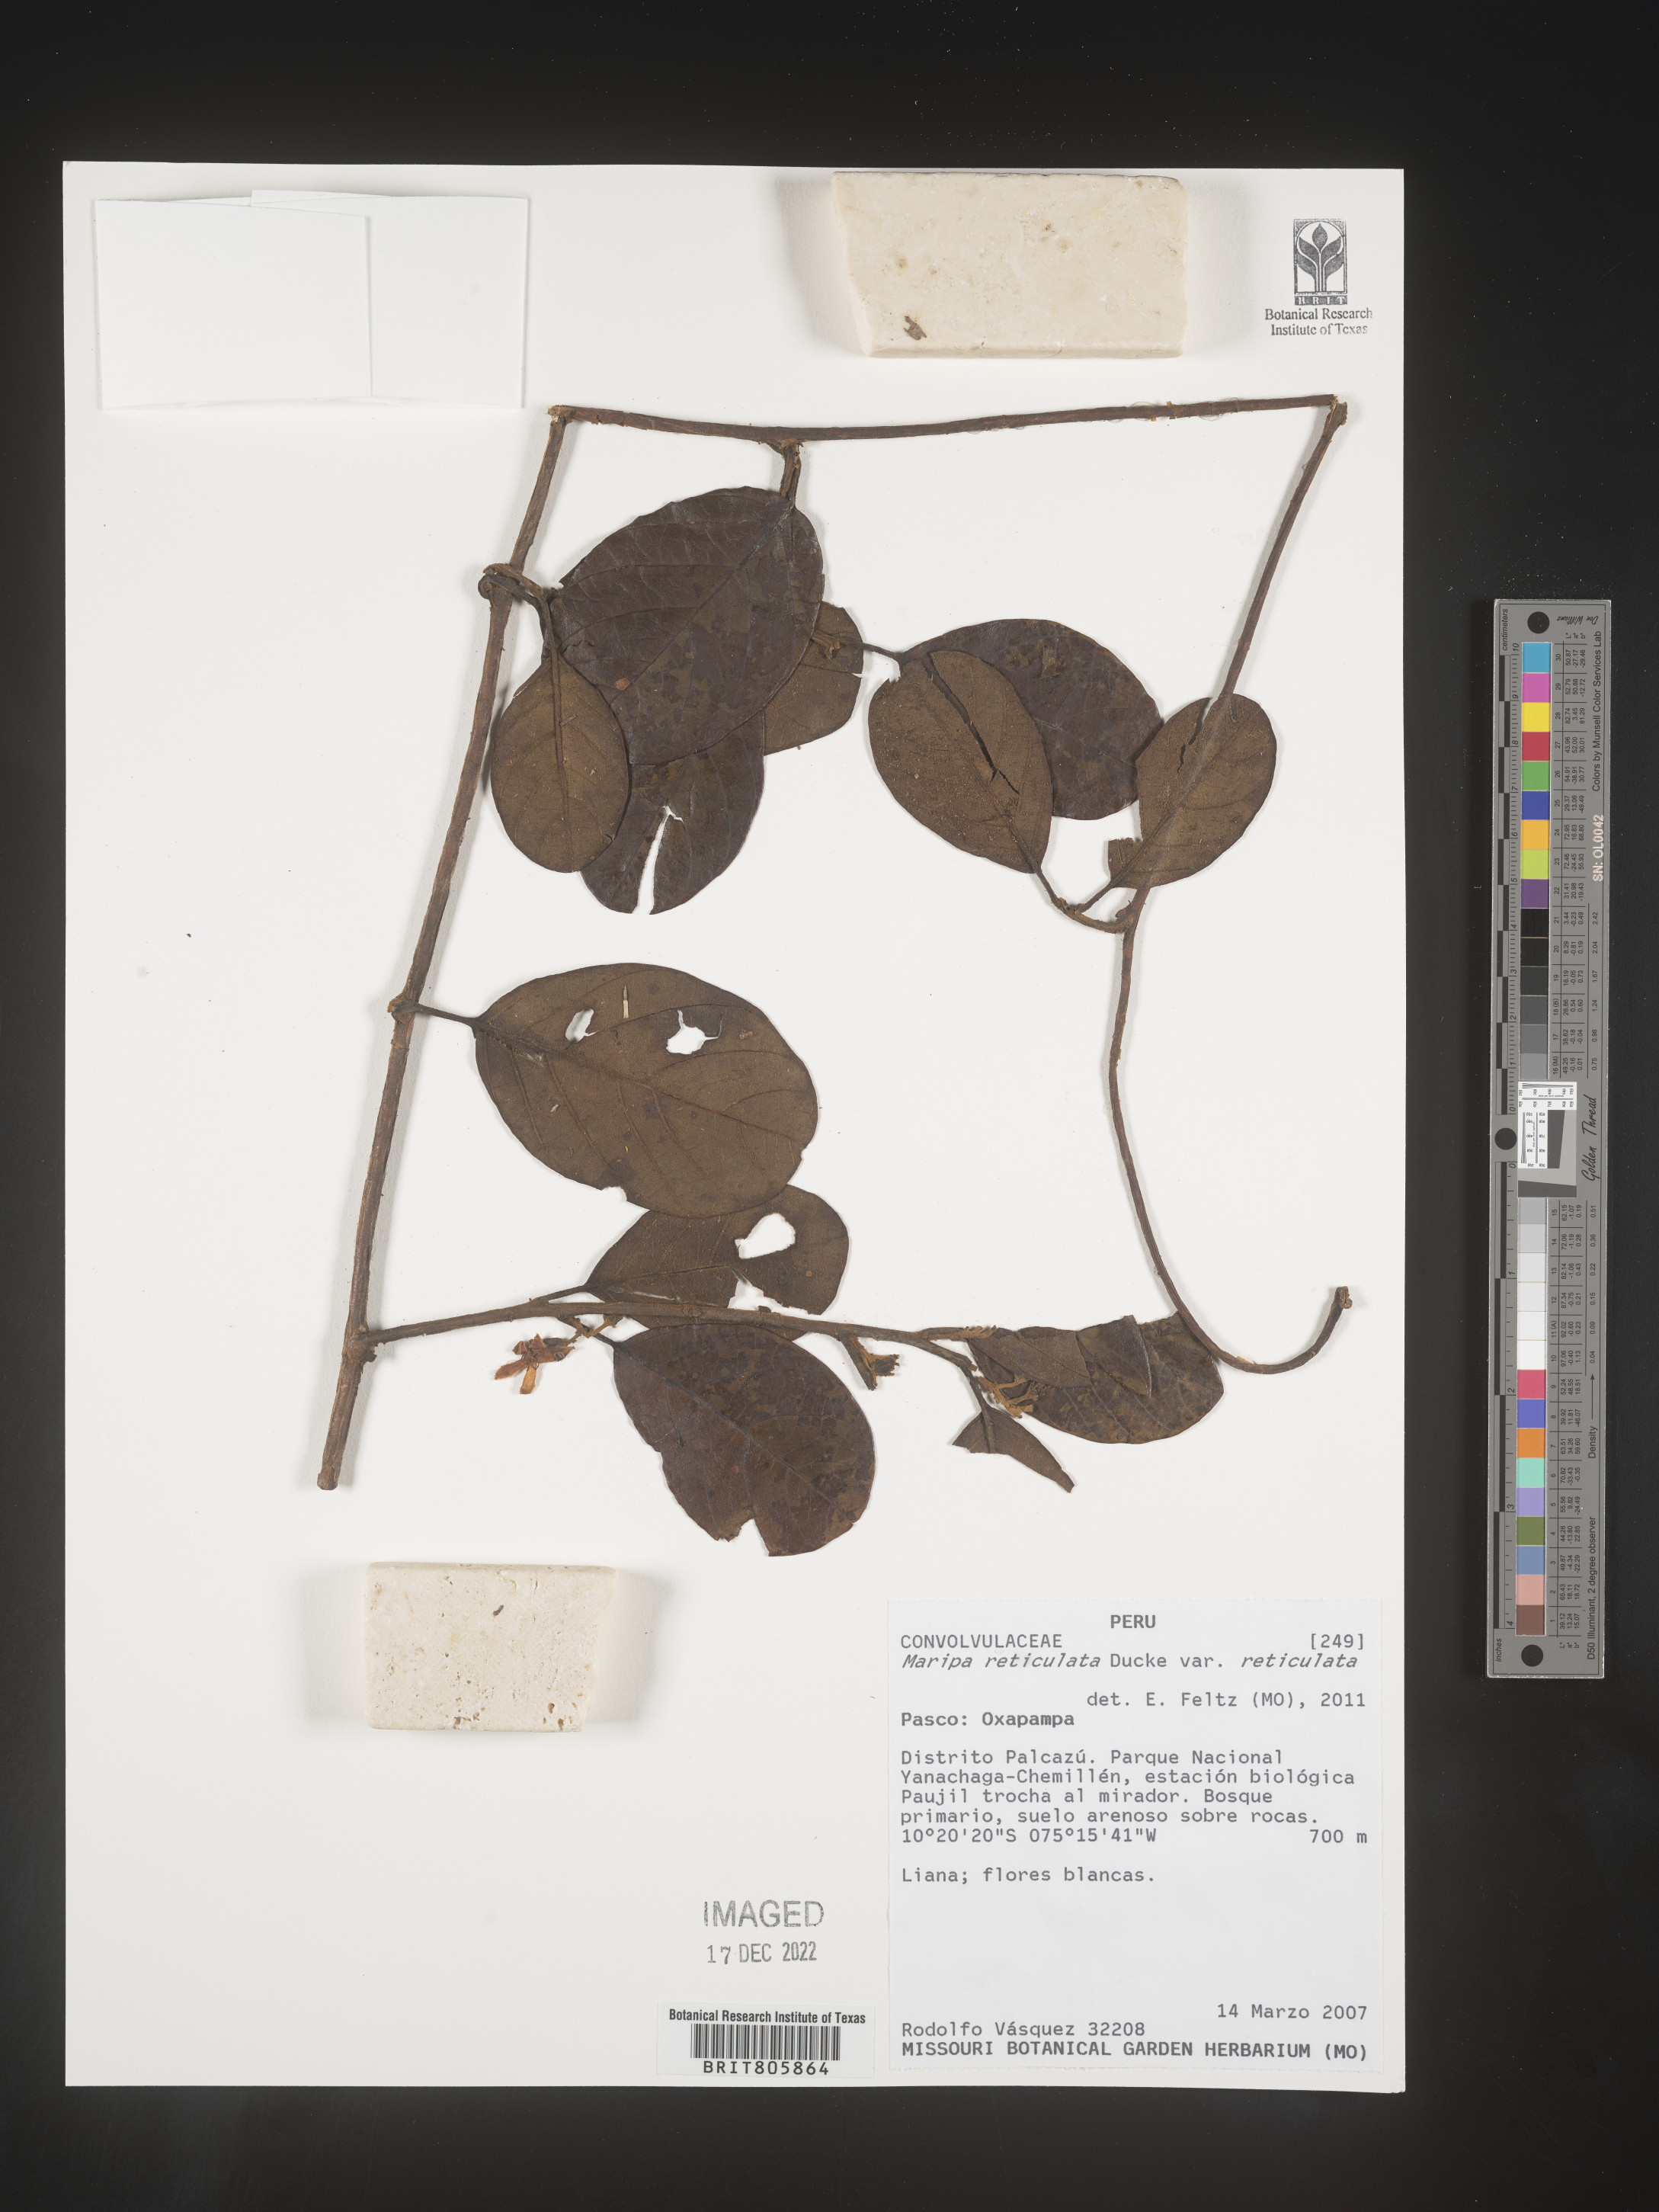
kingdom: Plantae
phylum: Tracheophyta
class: Magnoliopsida
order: Solanales
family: Convolvulaceae
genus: Maripa
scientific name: Maripa
